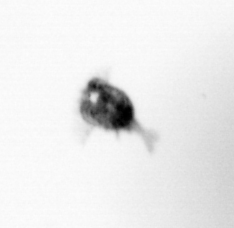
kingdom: Animalia
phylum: Arthropoda
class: Copepoda
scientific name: Copepoda
